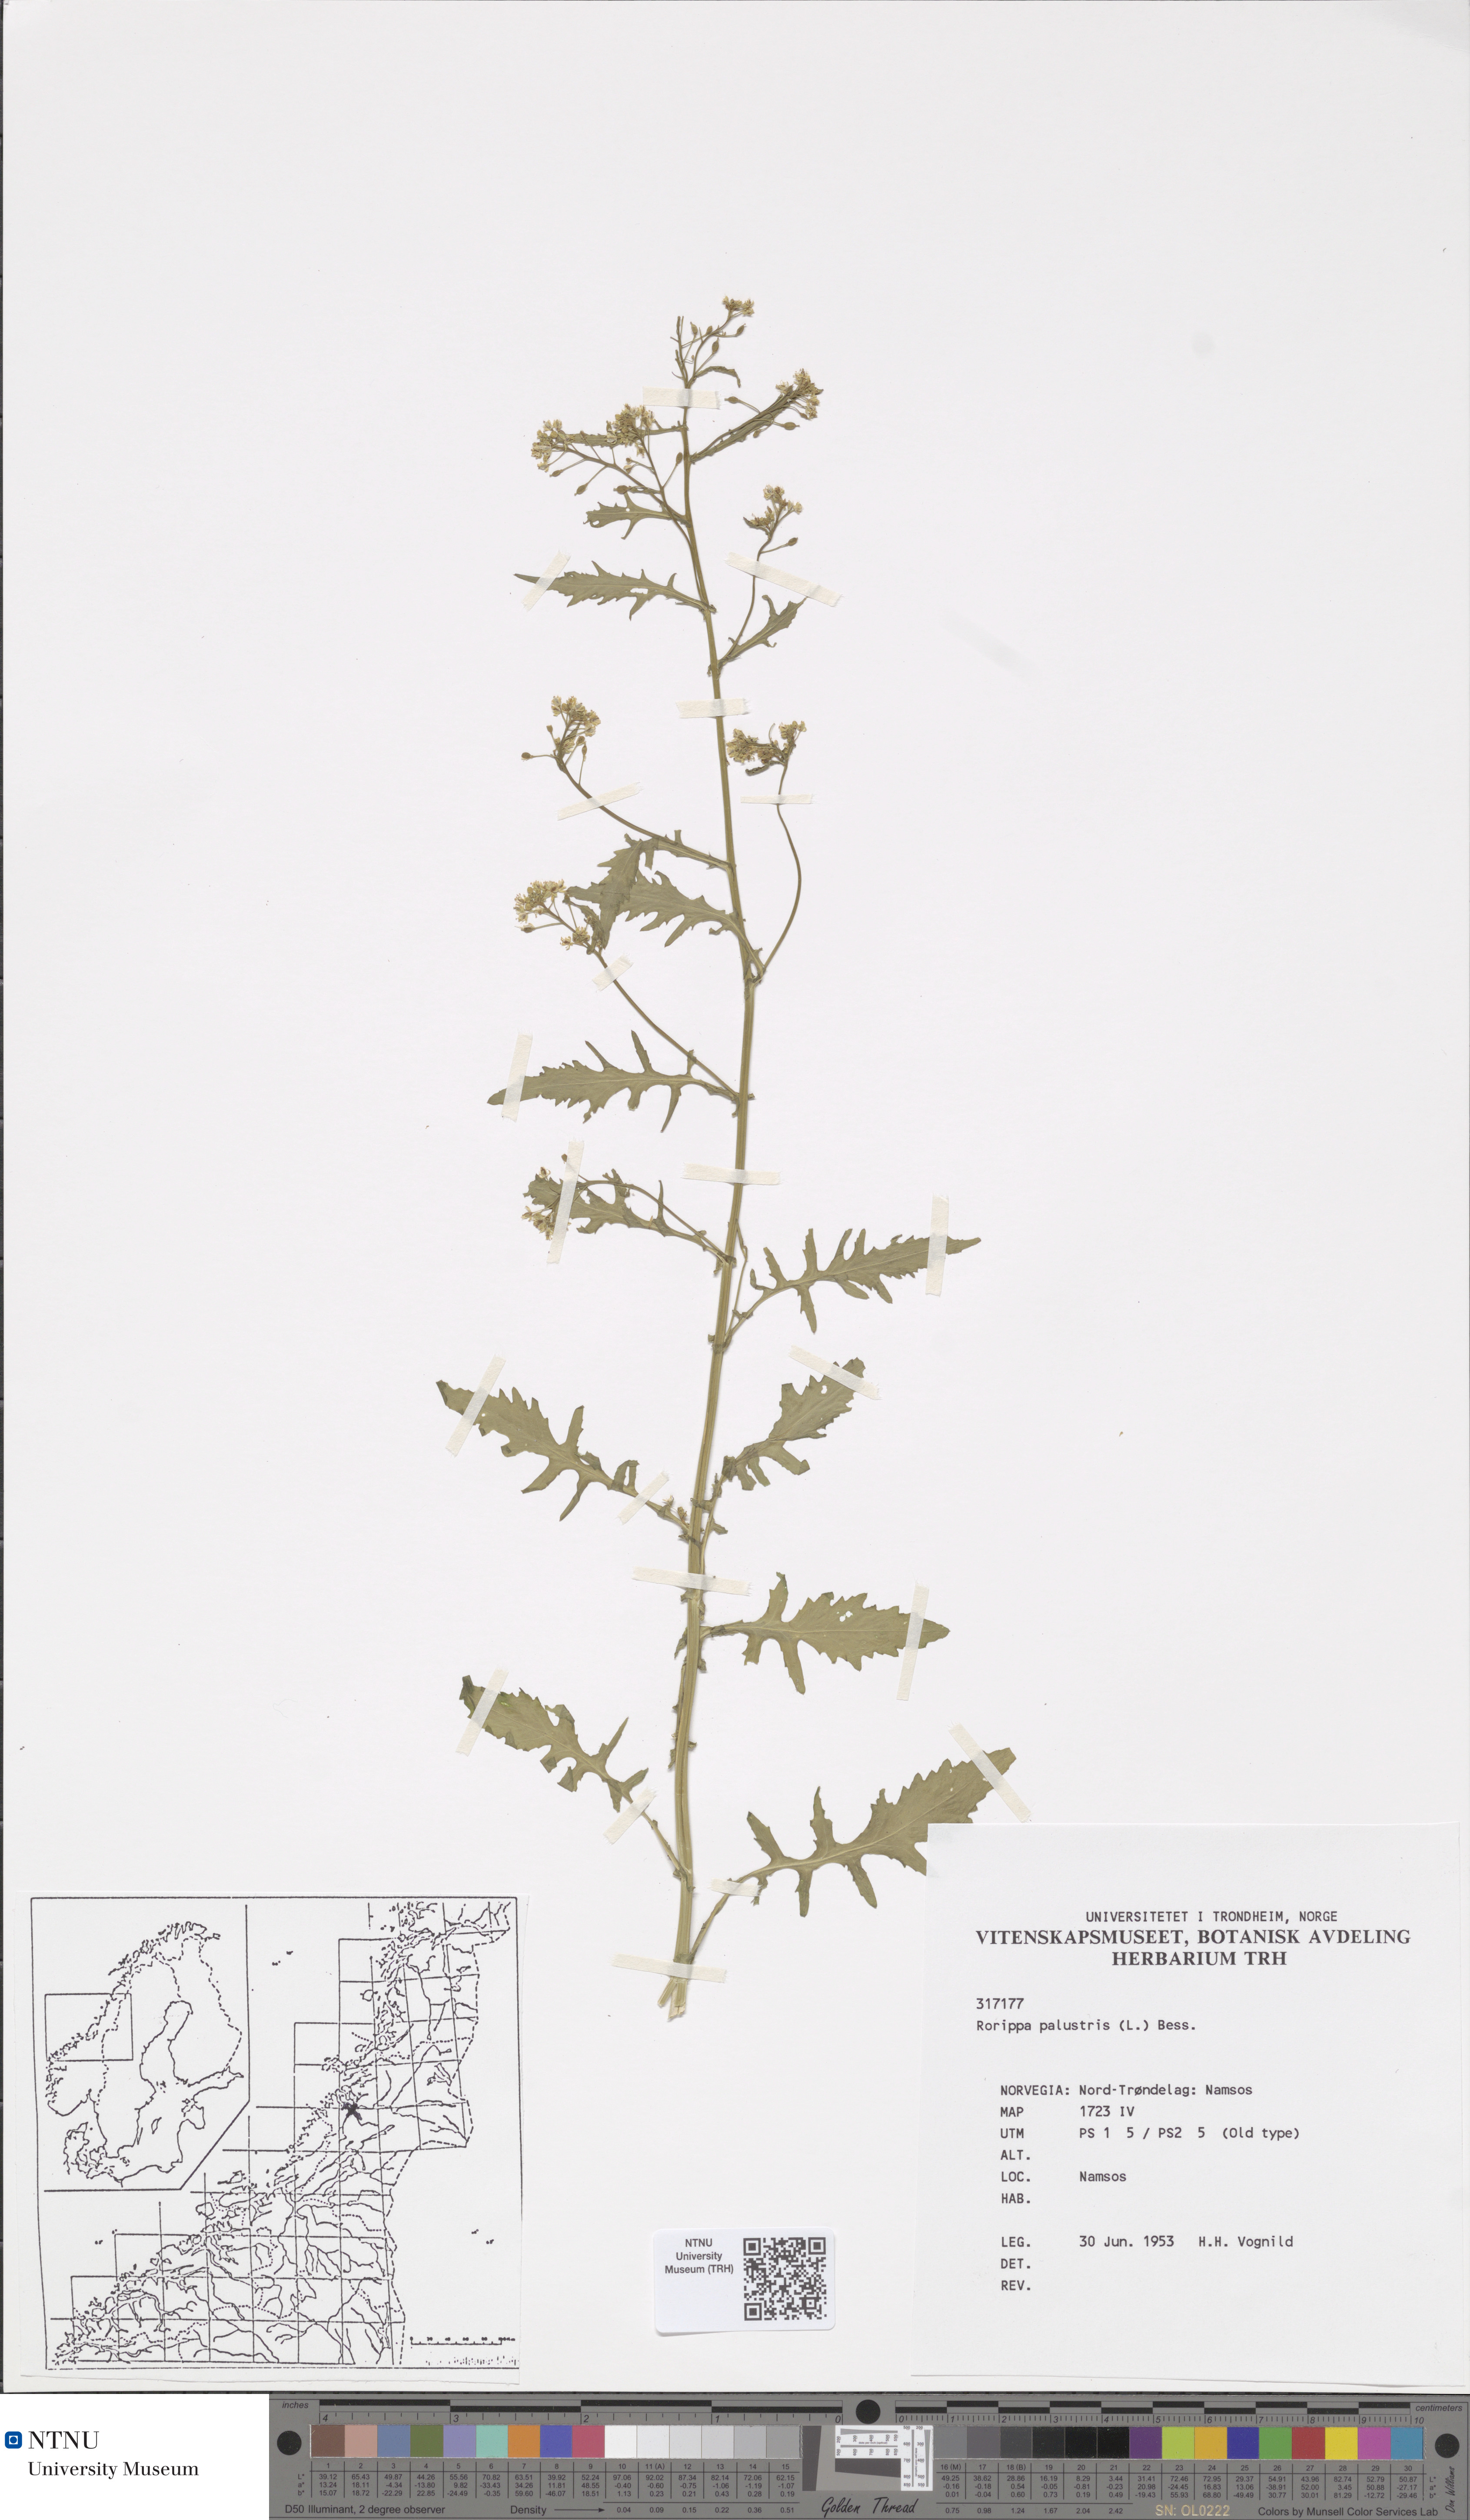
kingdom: Plantae
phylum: Tracheophyta
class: Magnoliopsida
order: Brassicales
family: Brassicaceae
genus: Rorippa
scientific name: Rorippa palustris
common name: Marsh yellow-cress
